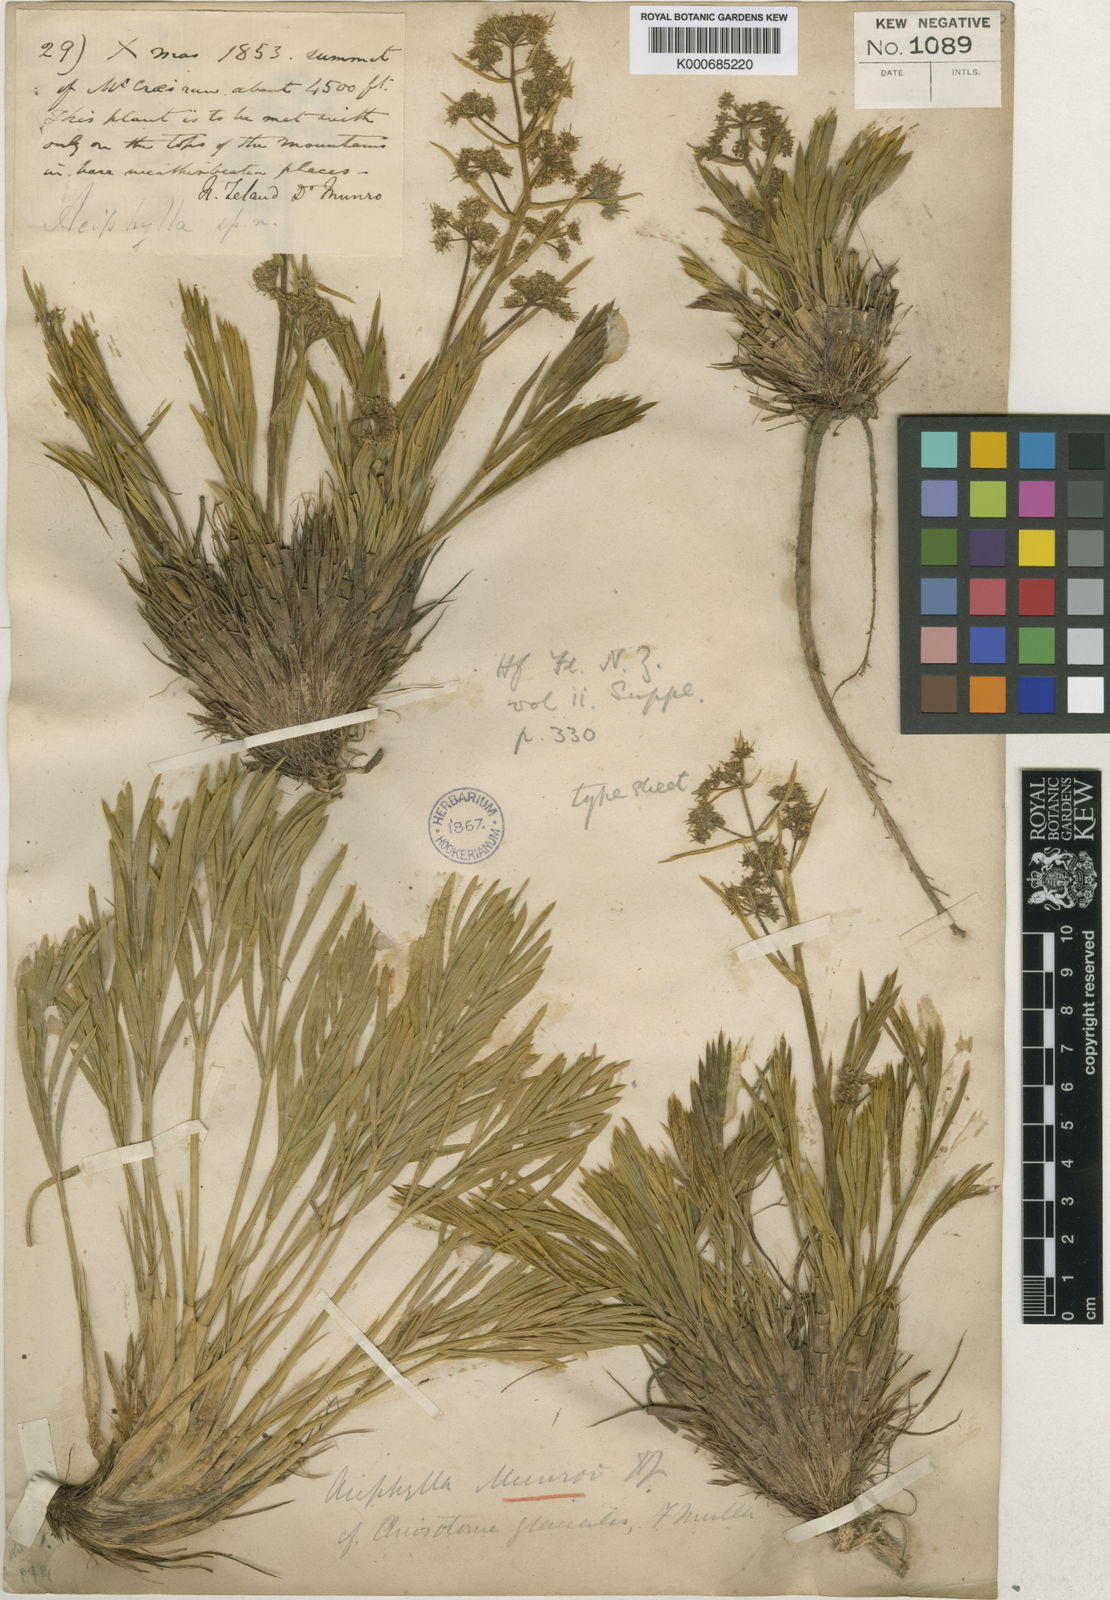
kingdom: Plantae
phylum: Tracheophyta
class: Magnoliopsida
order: Apiales
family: Apiaceae
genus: Aciphylla
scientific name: Aciphylla monroi
